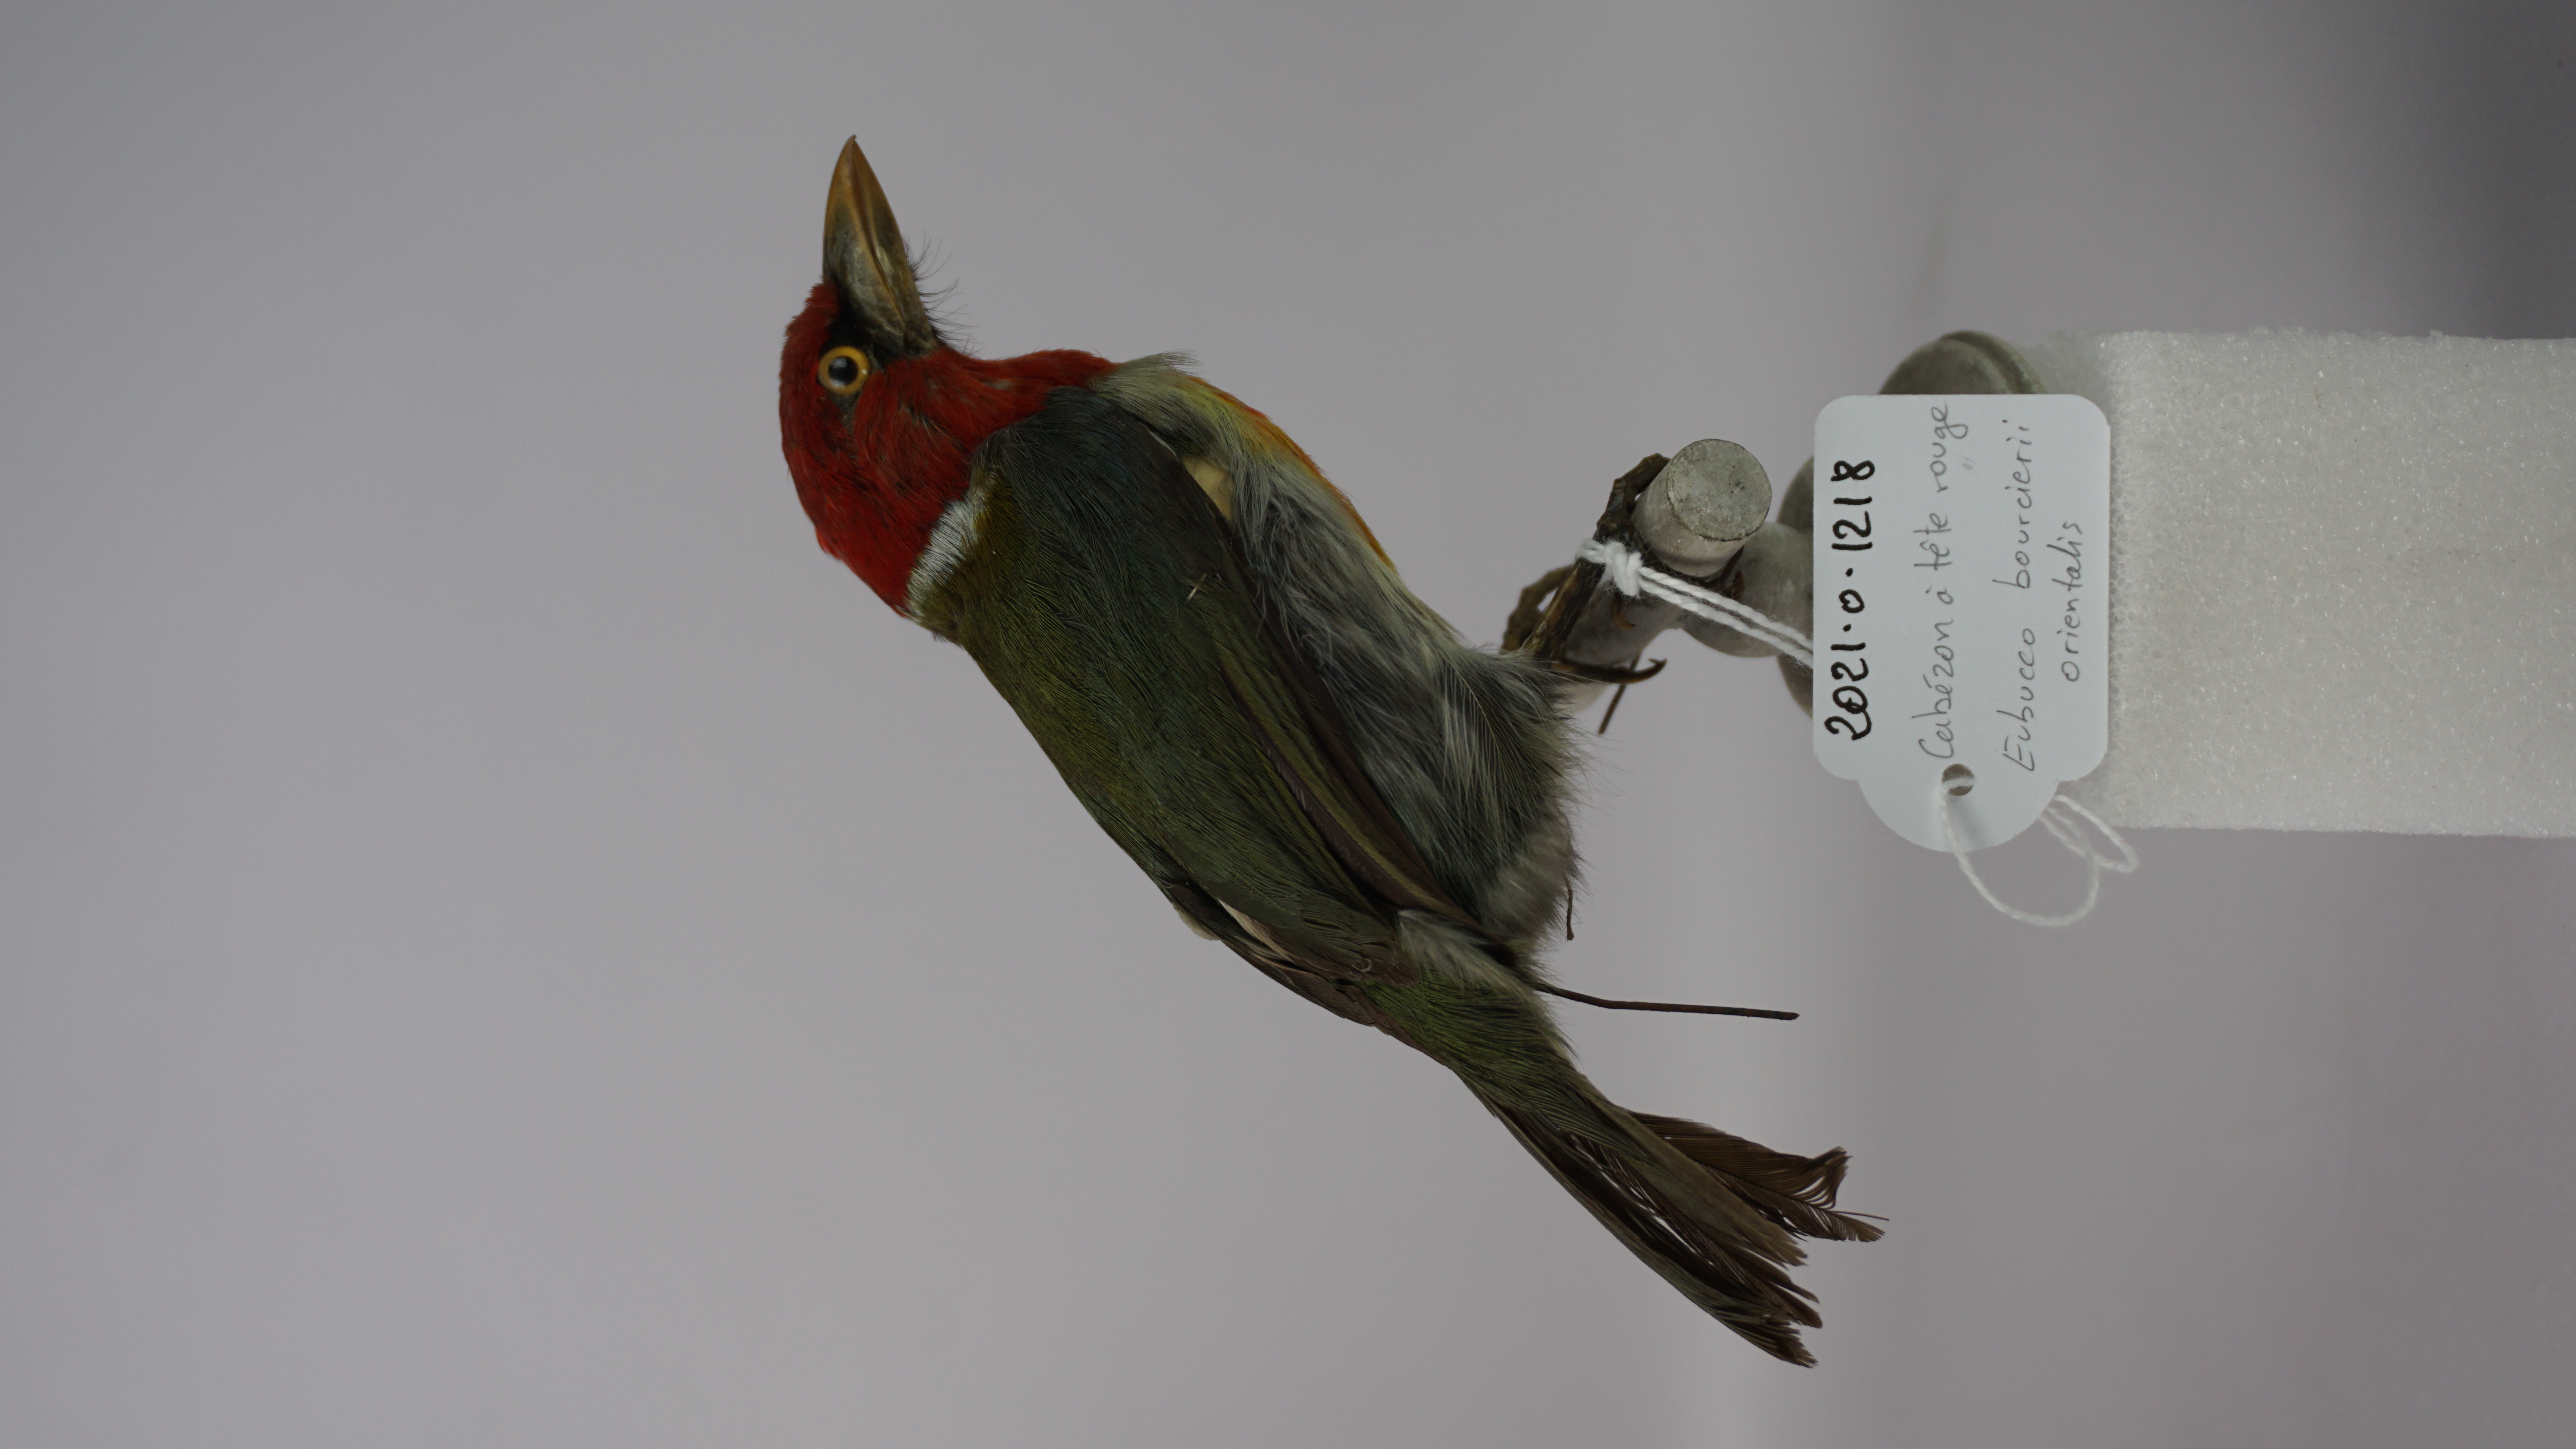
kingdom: Animalia
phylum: Chordata
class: Aves
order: Piciformes
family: Capitonidae
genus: Eubucco
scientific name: Eubucco bourcierii
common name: Red-headed barbet
